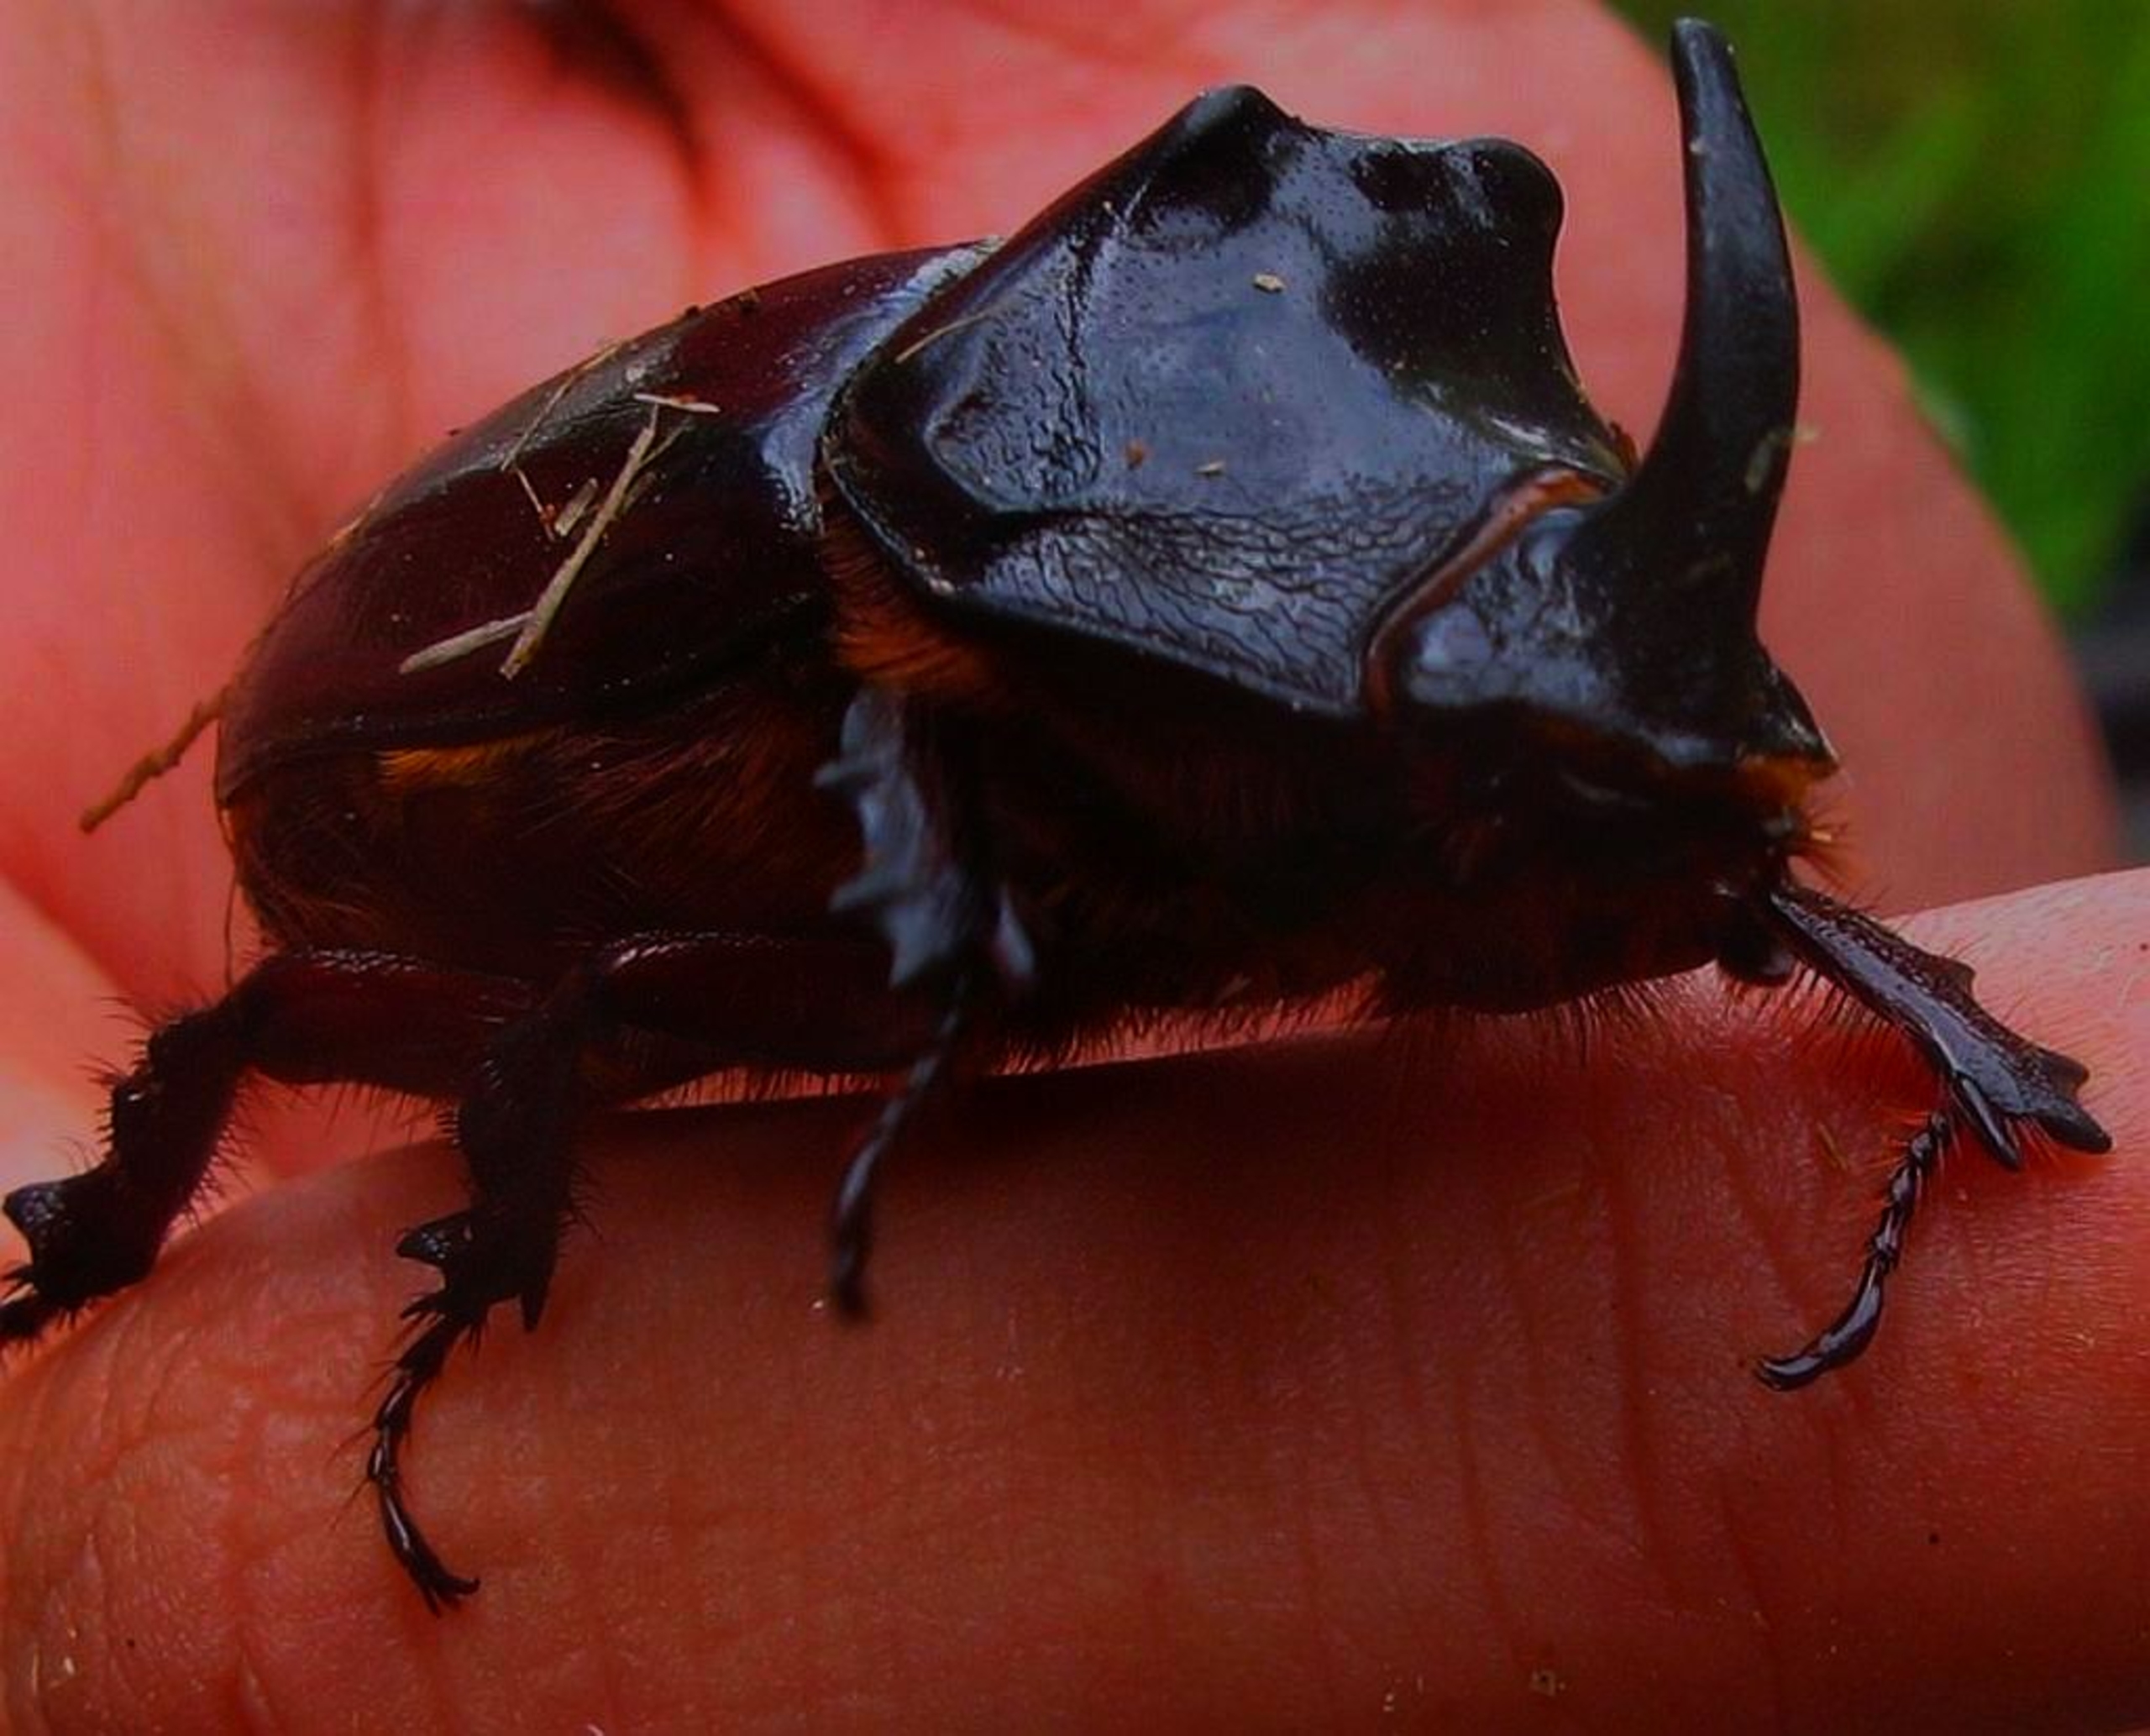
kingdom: Animalia
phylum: Arthropoda
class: Insecta
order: Coleoptera
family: Scarabaeidae
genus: Oryctes
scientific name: Oryctes nasicornis
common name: Næsehornsbille
